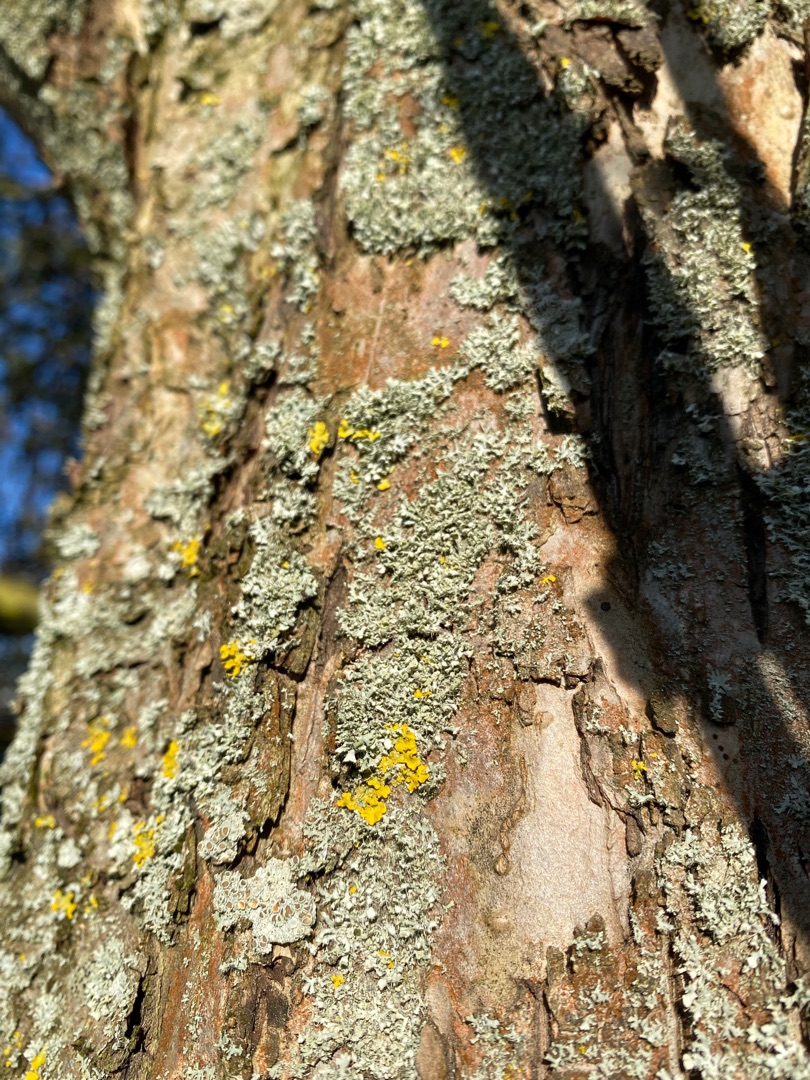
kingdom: Fungi
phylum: Ascomycota
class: Lecanoromycetes
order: Caliciales
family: Physciaceae
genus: Physcia
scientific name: Physcia
